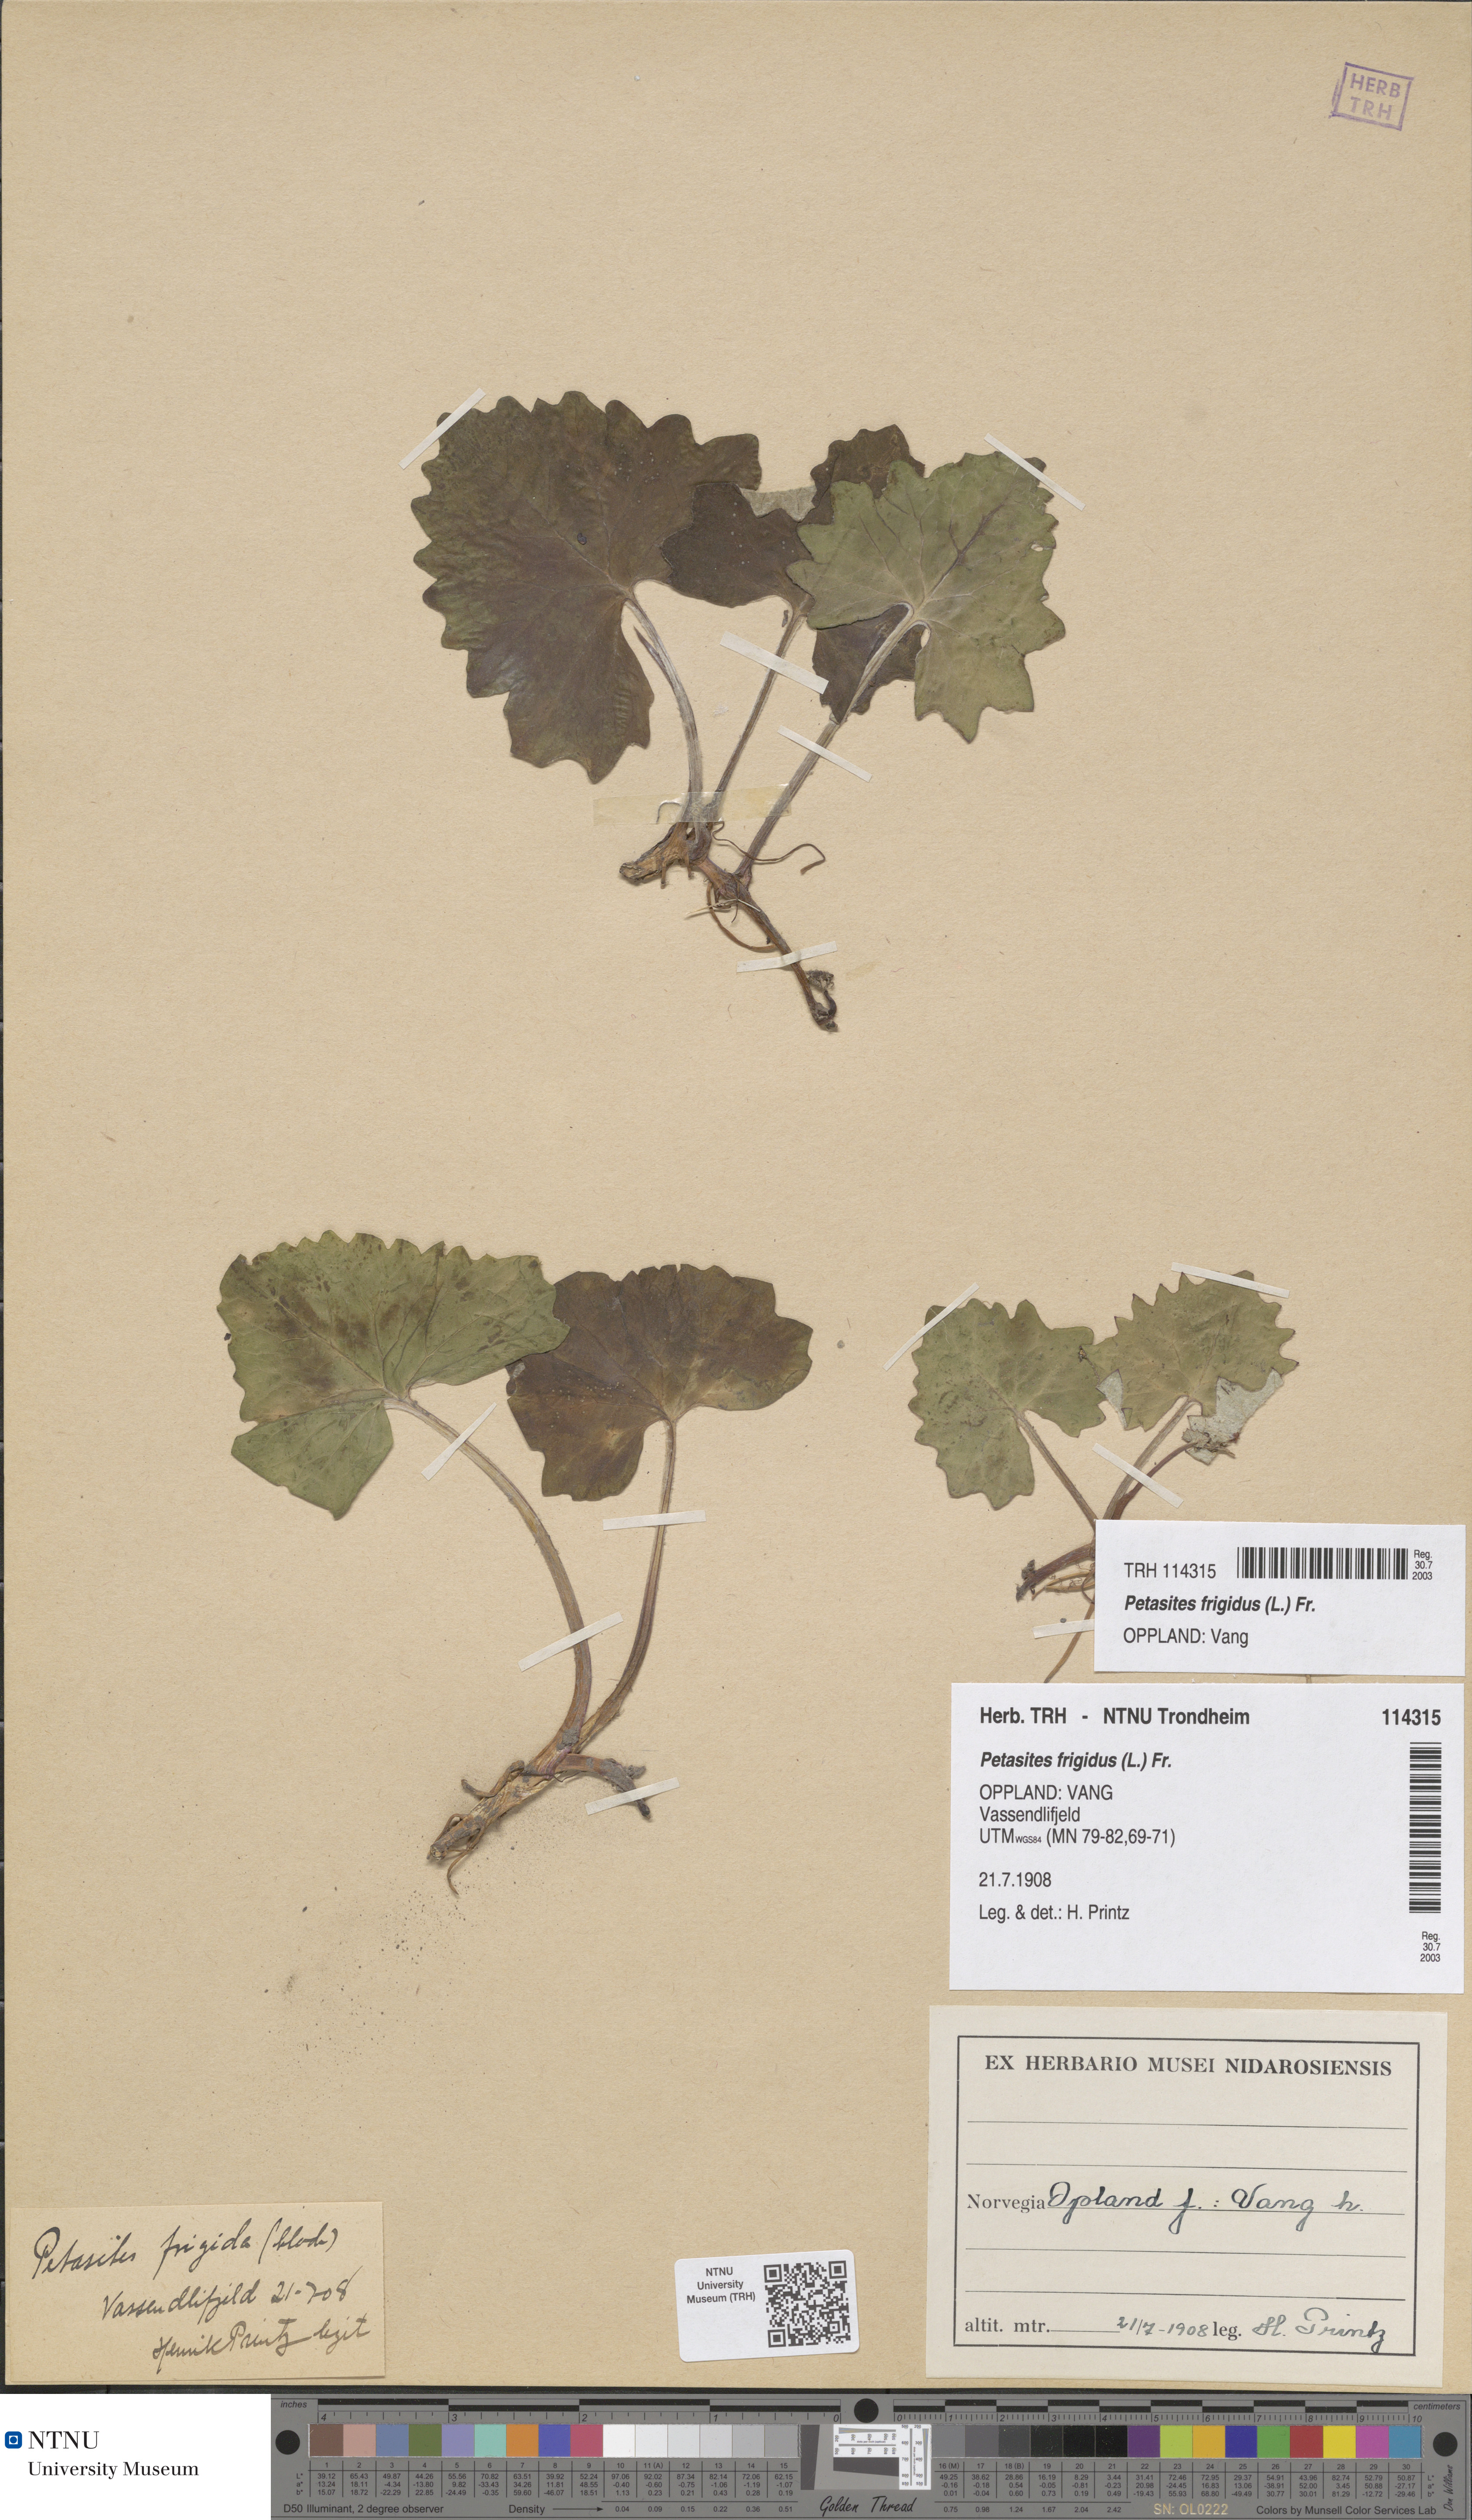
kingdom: Plantae
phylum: Tracheophyta
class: Magnoliopsida
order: Asterales
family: Asteraceae
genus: Petasites
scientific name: Petasites frigidus
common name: Arctic butterbur
